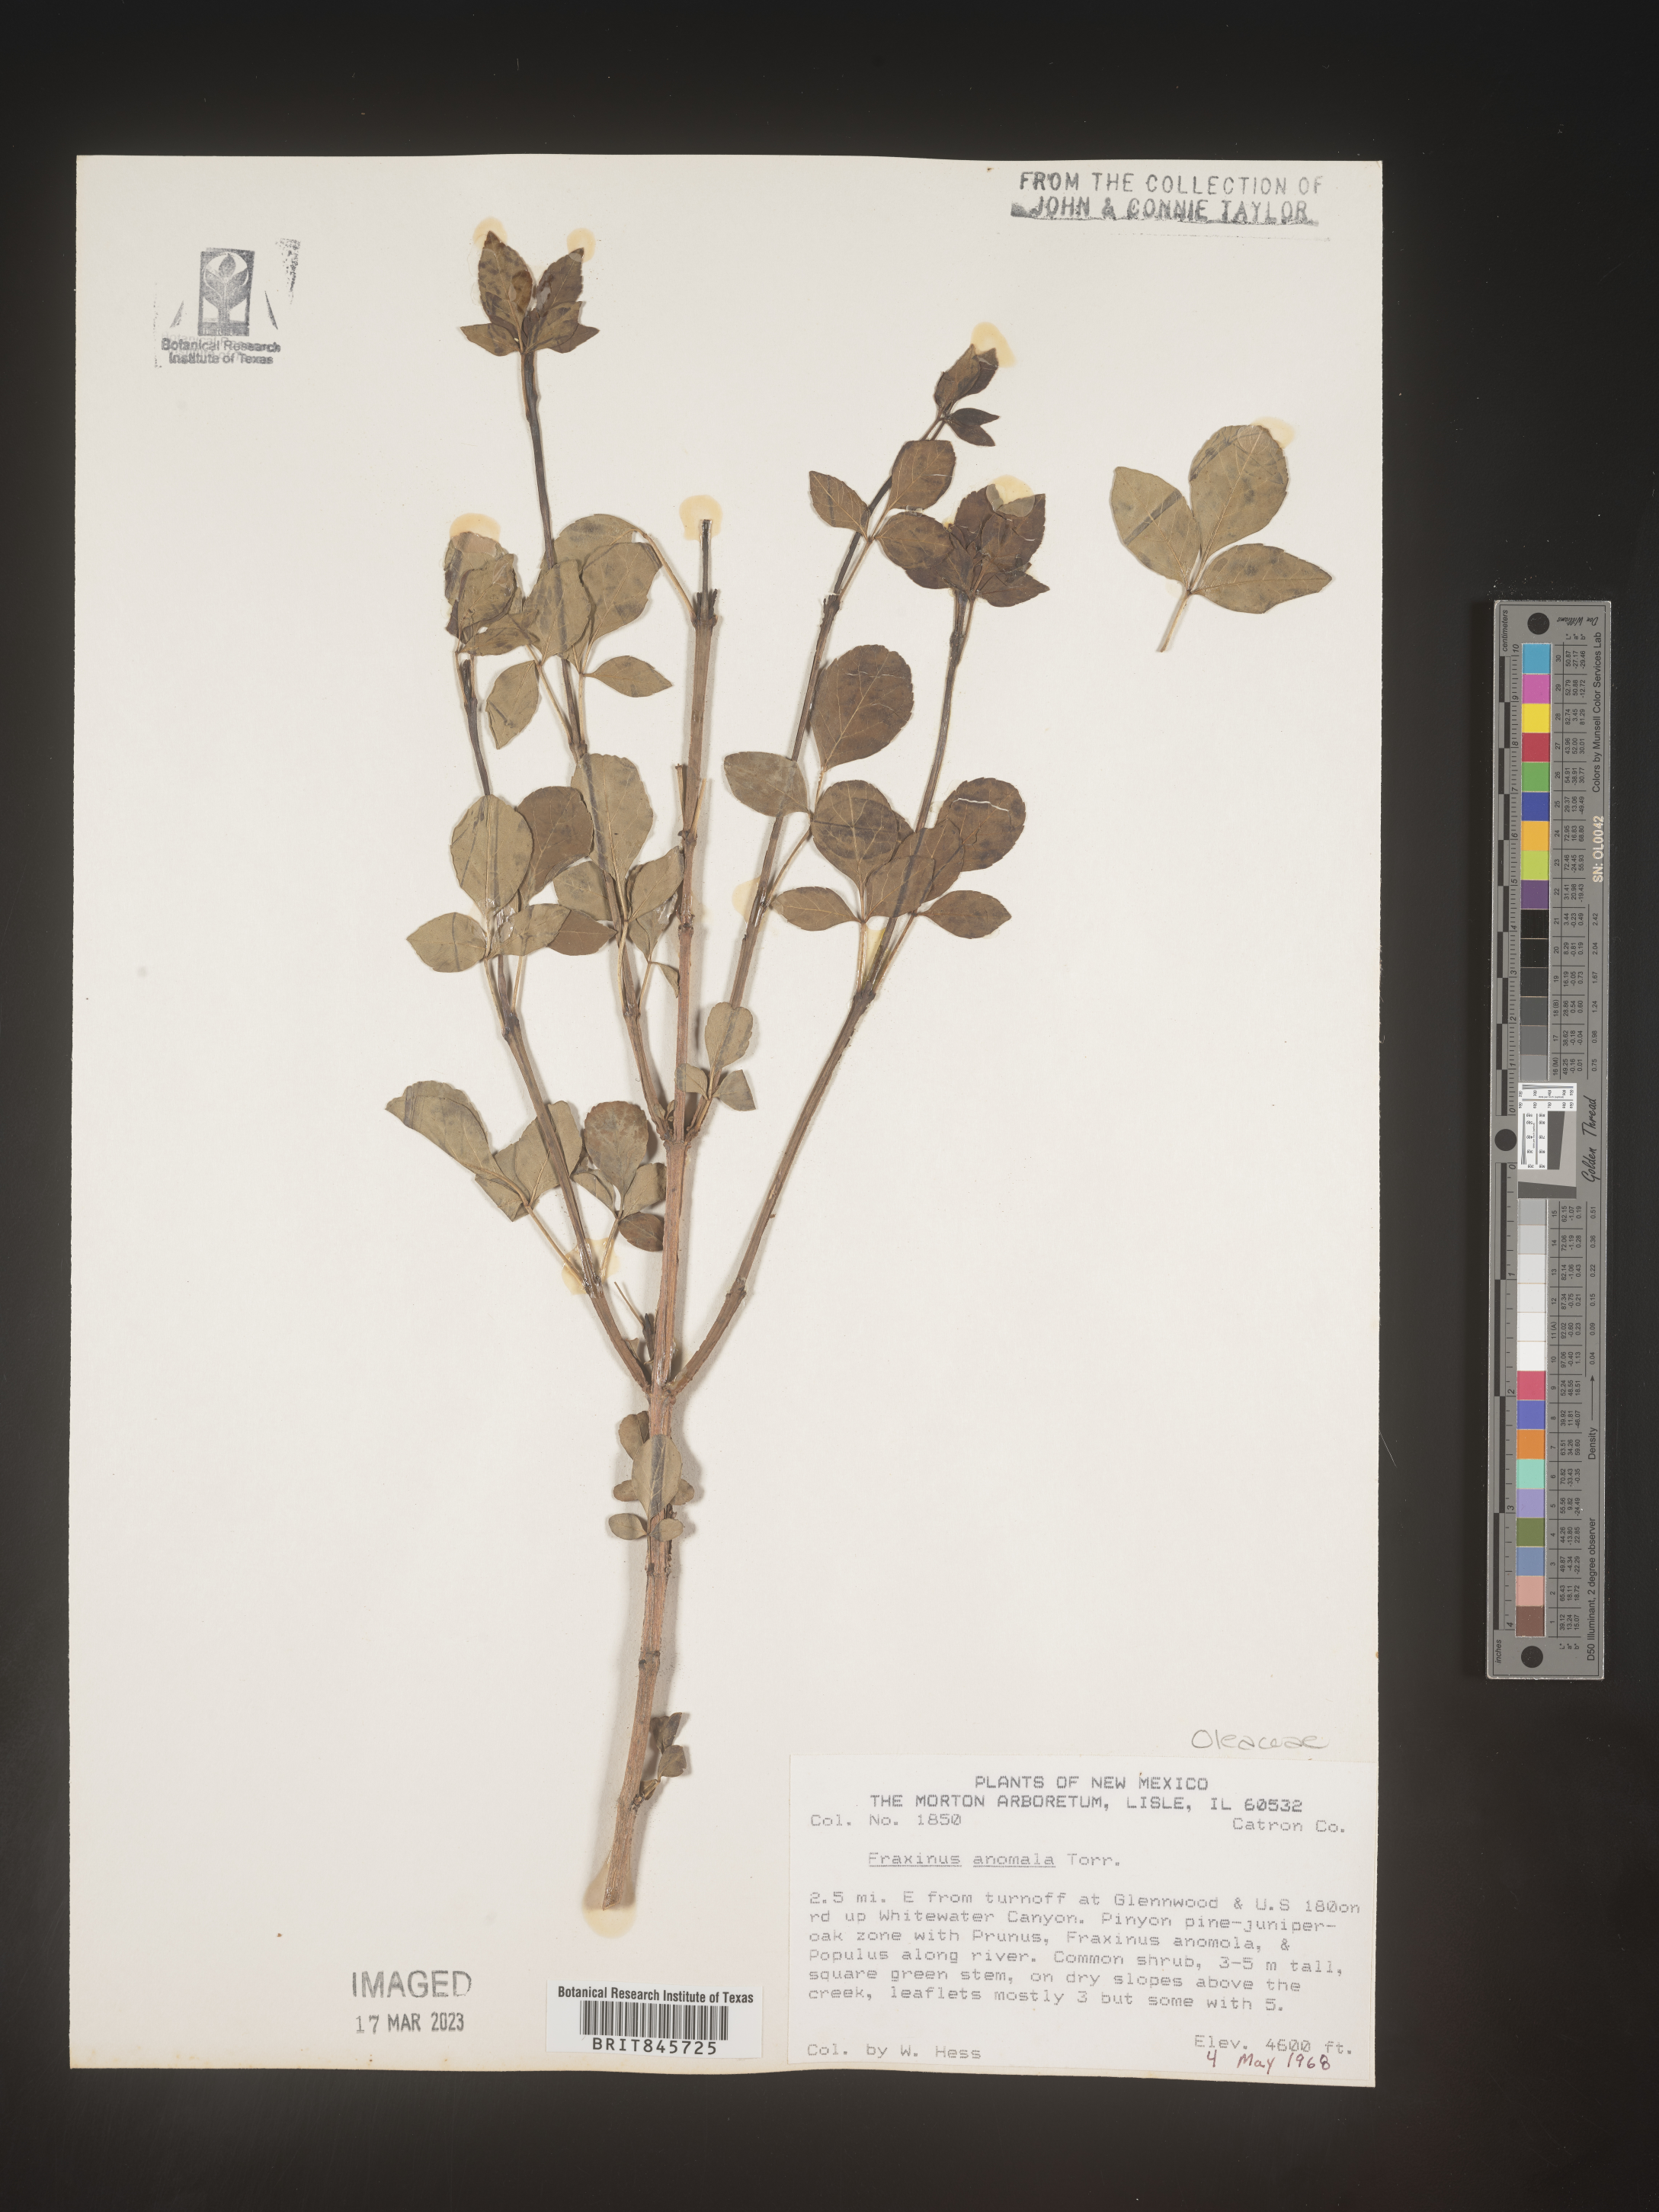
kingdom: Plantae
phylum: Tracheophyta
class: Magnoliopsida
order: Lamiales
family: Oleaceae
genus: Fraxinus
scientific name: Fraxinus anomala
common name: Utah ash
